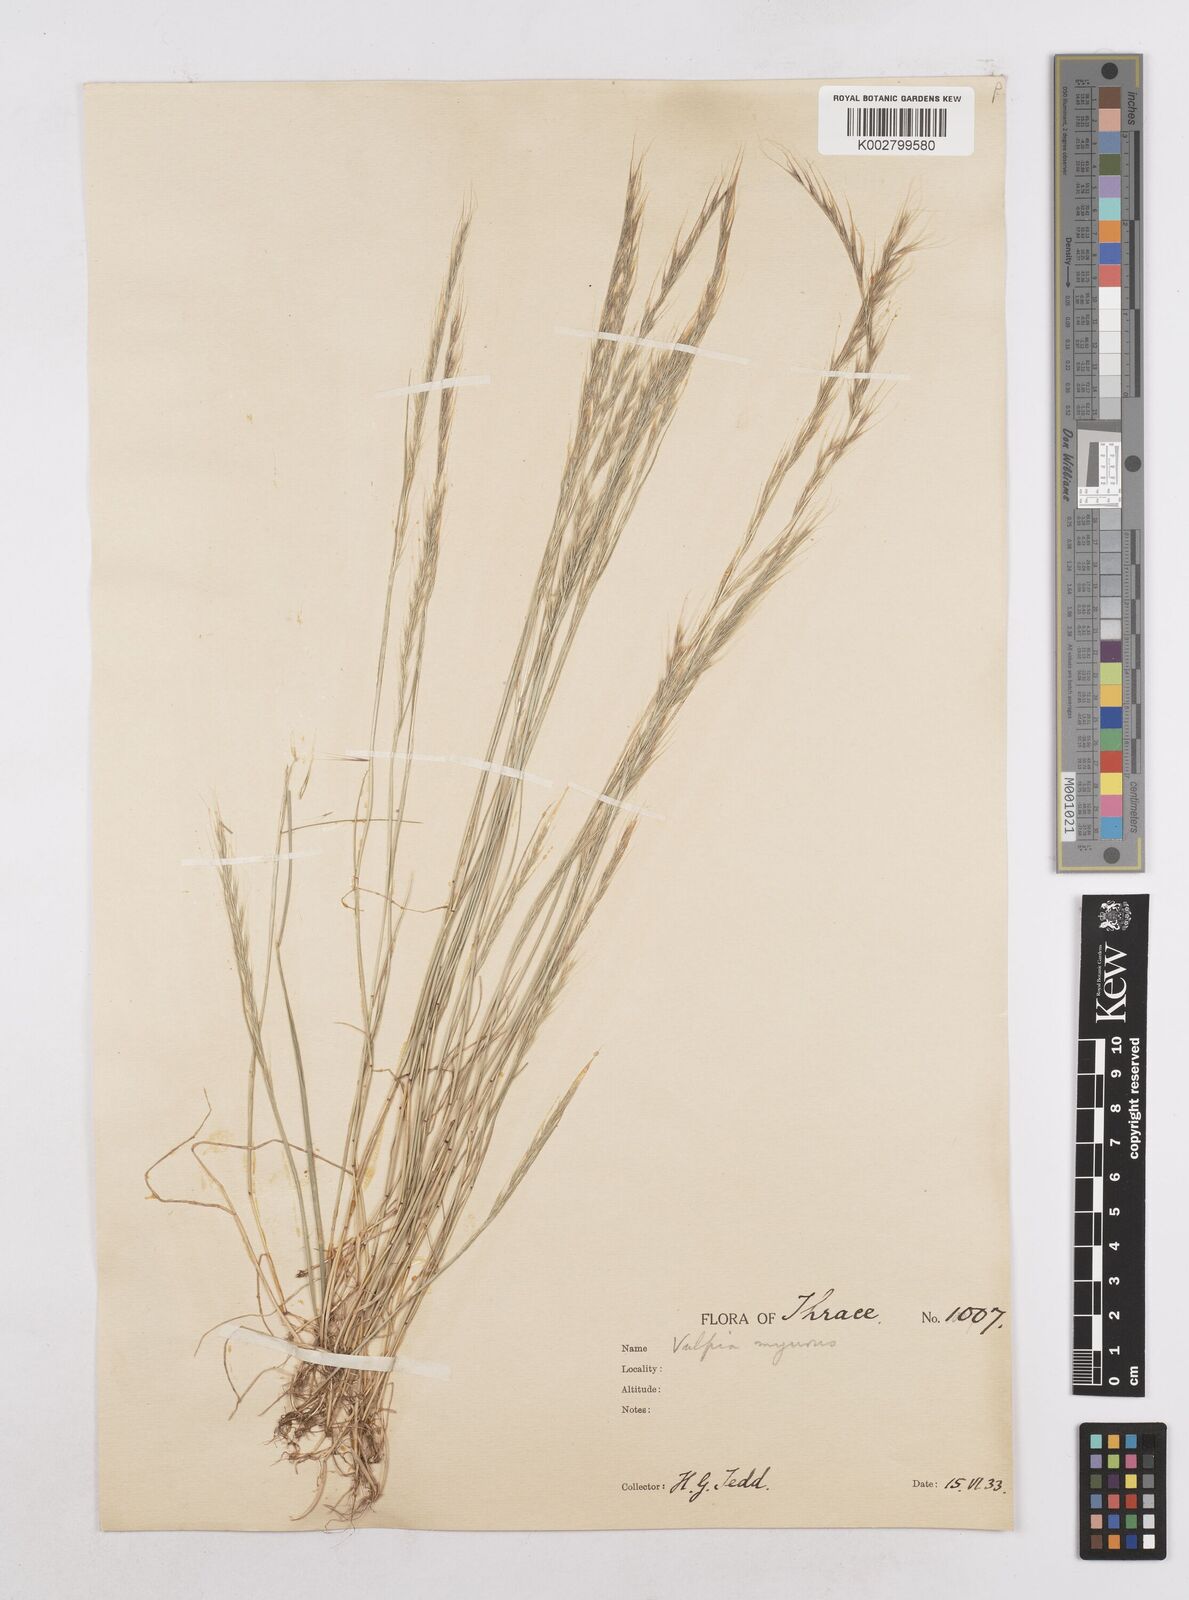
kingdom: Plantae
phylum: Tracheophyta
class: Liliopsida
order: Poales
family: Poaceae
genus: Festuca
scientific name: Festuca myuros
